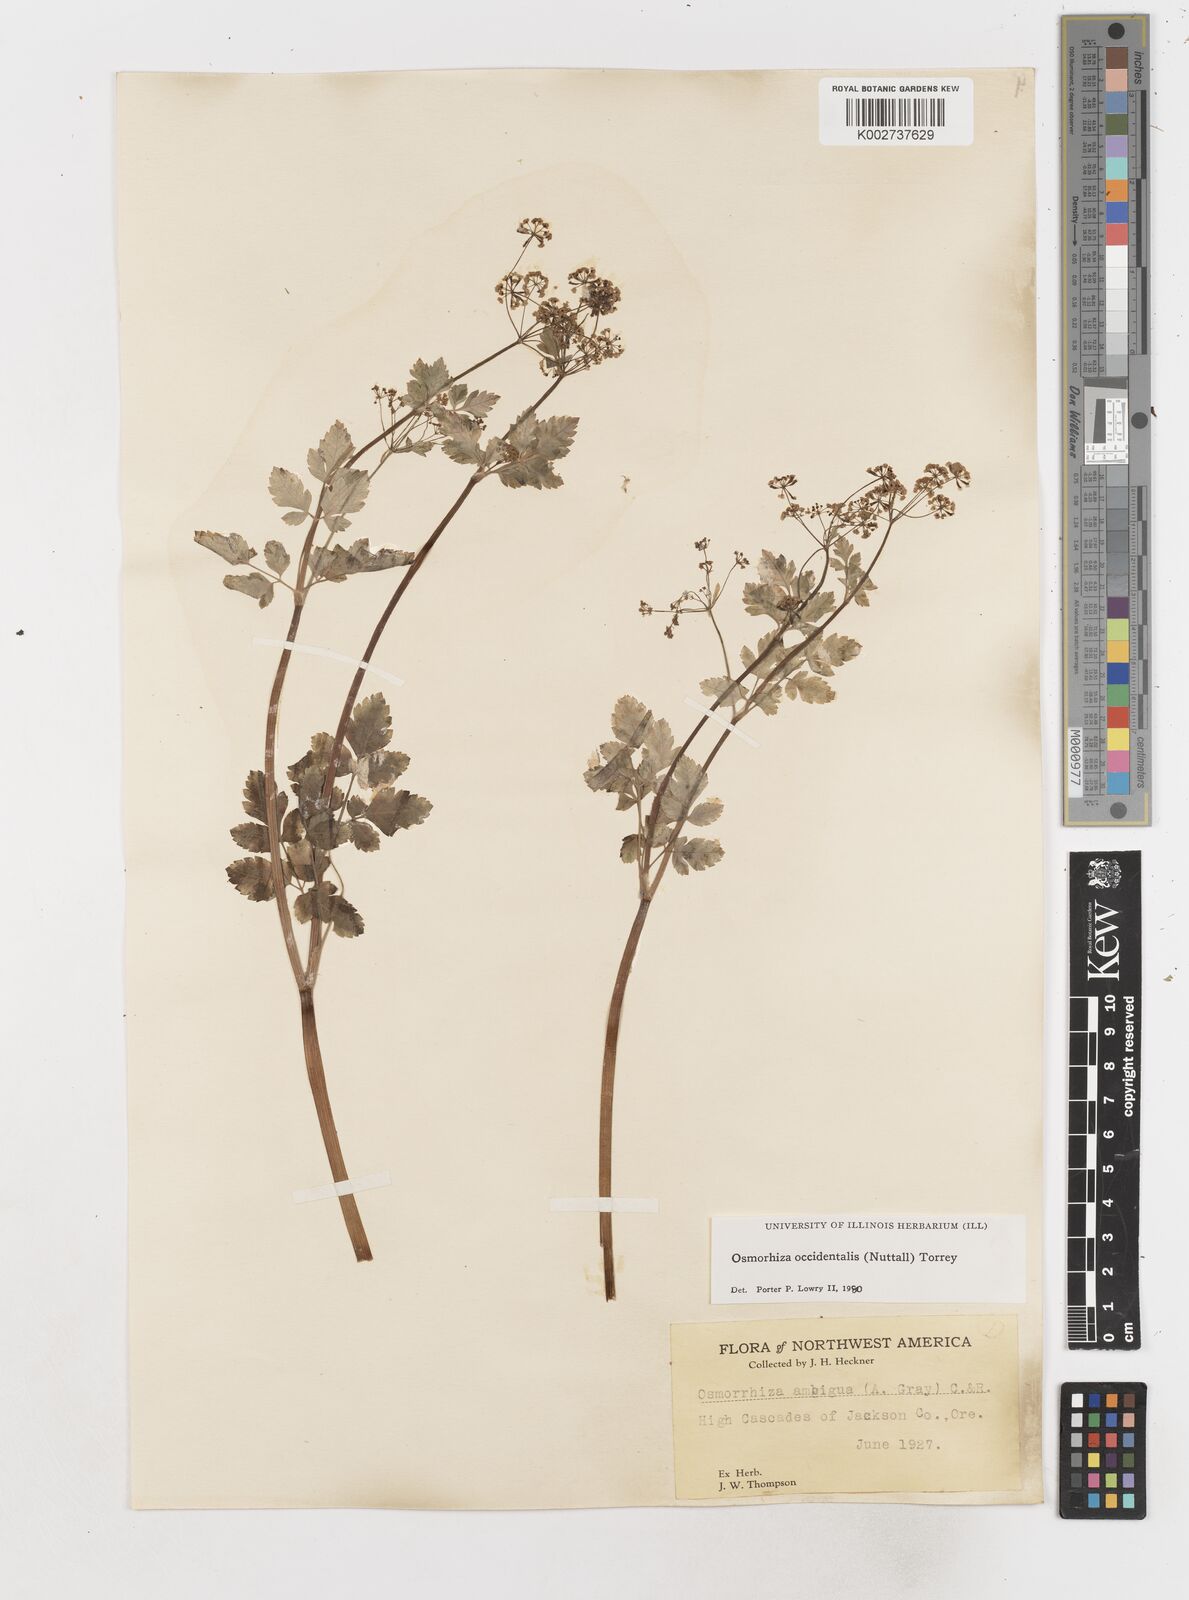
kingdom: Plantae
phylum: Tracheophyta
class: Magnoliopsida
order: Apiales
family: Apiaceae
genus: Osmorhiza
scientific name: Osmorhiza occidentalis
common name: Western sweet cicely
